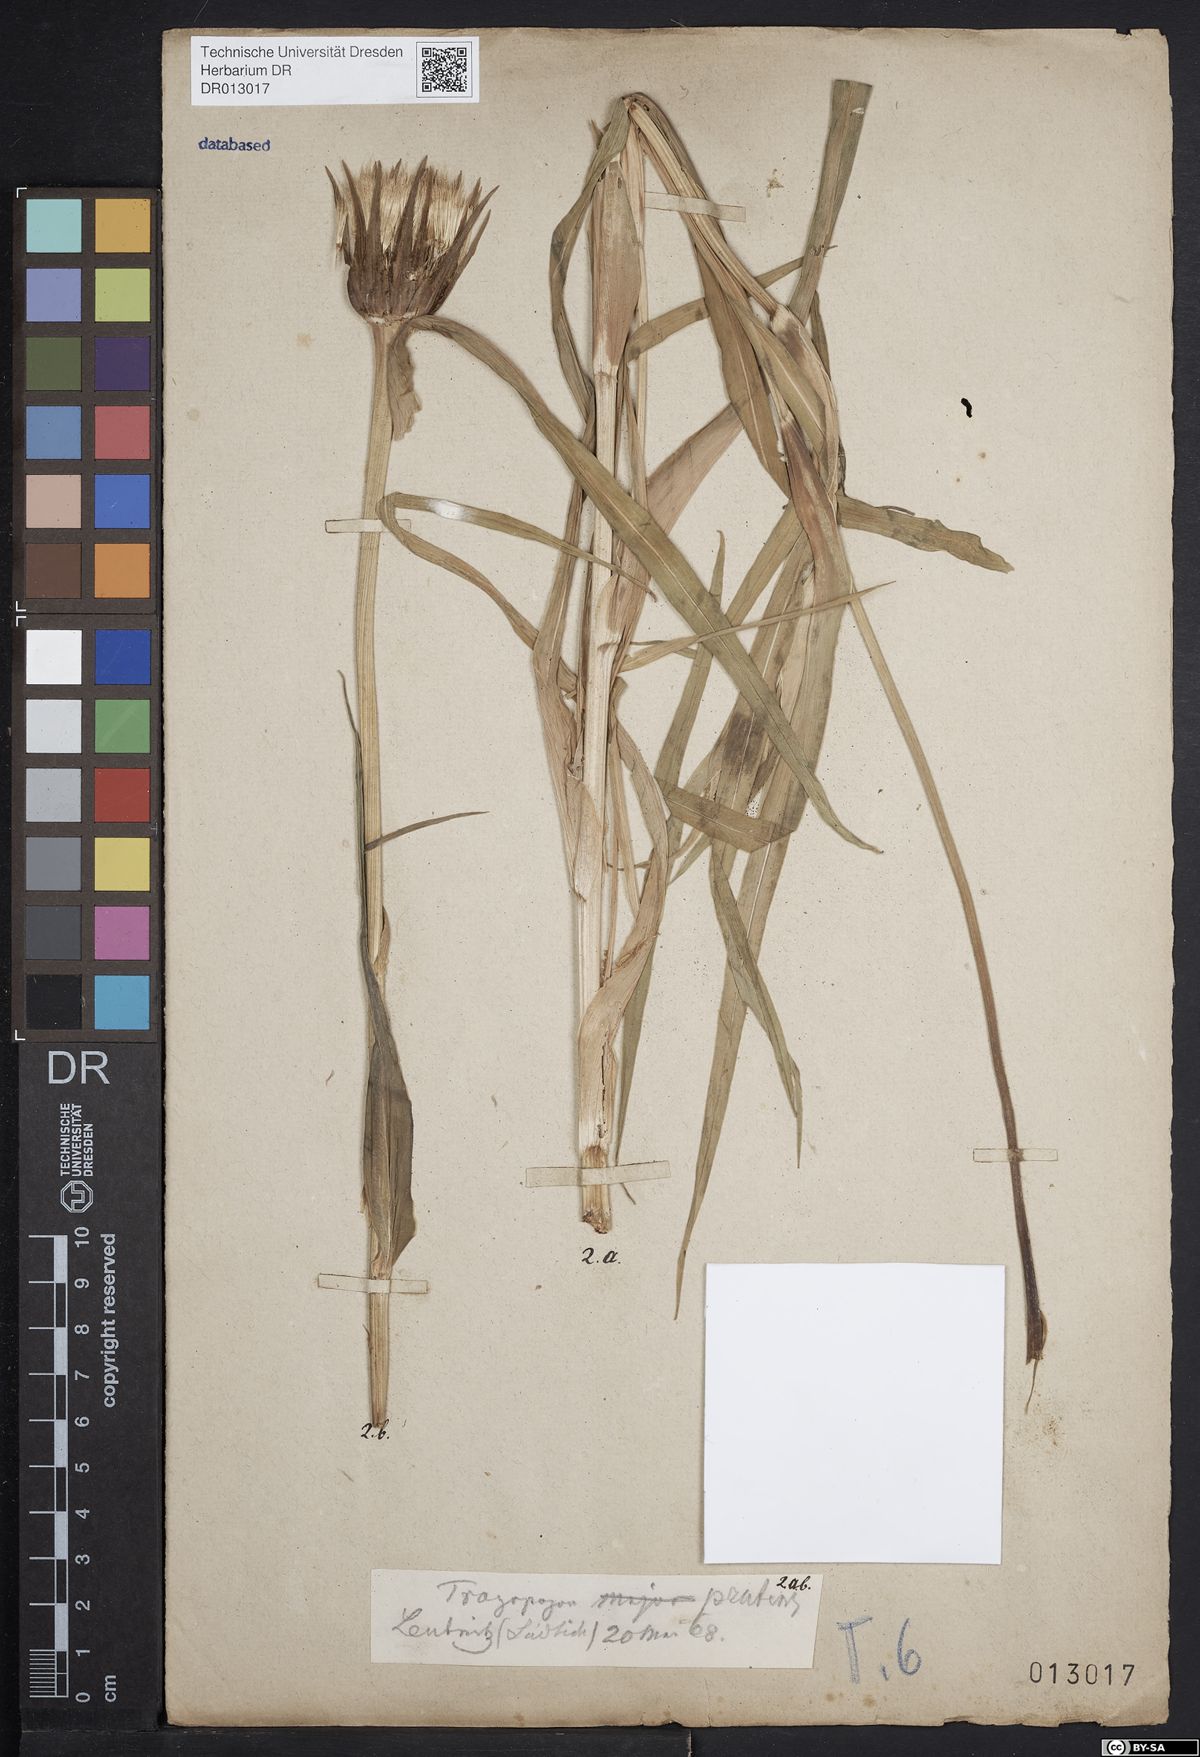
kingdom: Plantae
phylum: Tracheophyta
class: Magnoliopsida
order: Asterales
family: Asteraceae
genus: Tragopogon
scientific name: Tragopogon pratensis
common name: Goat's-beard
